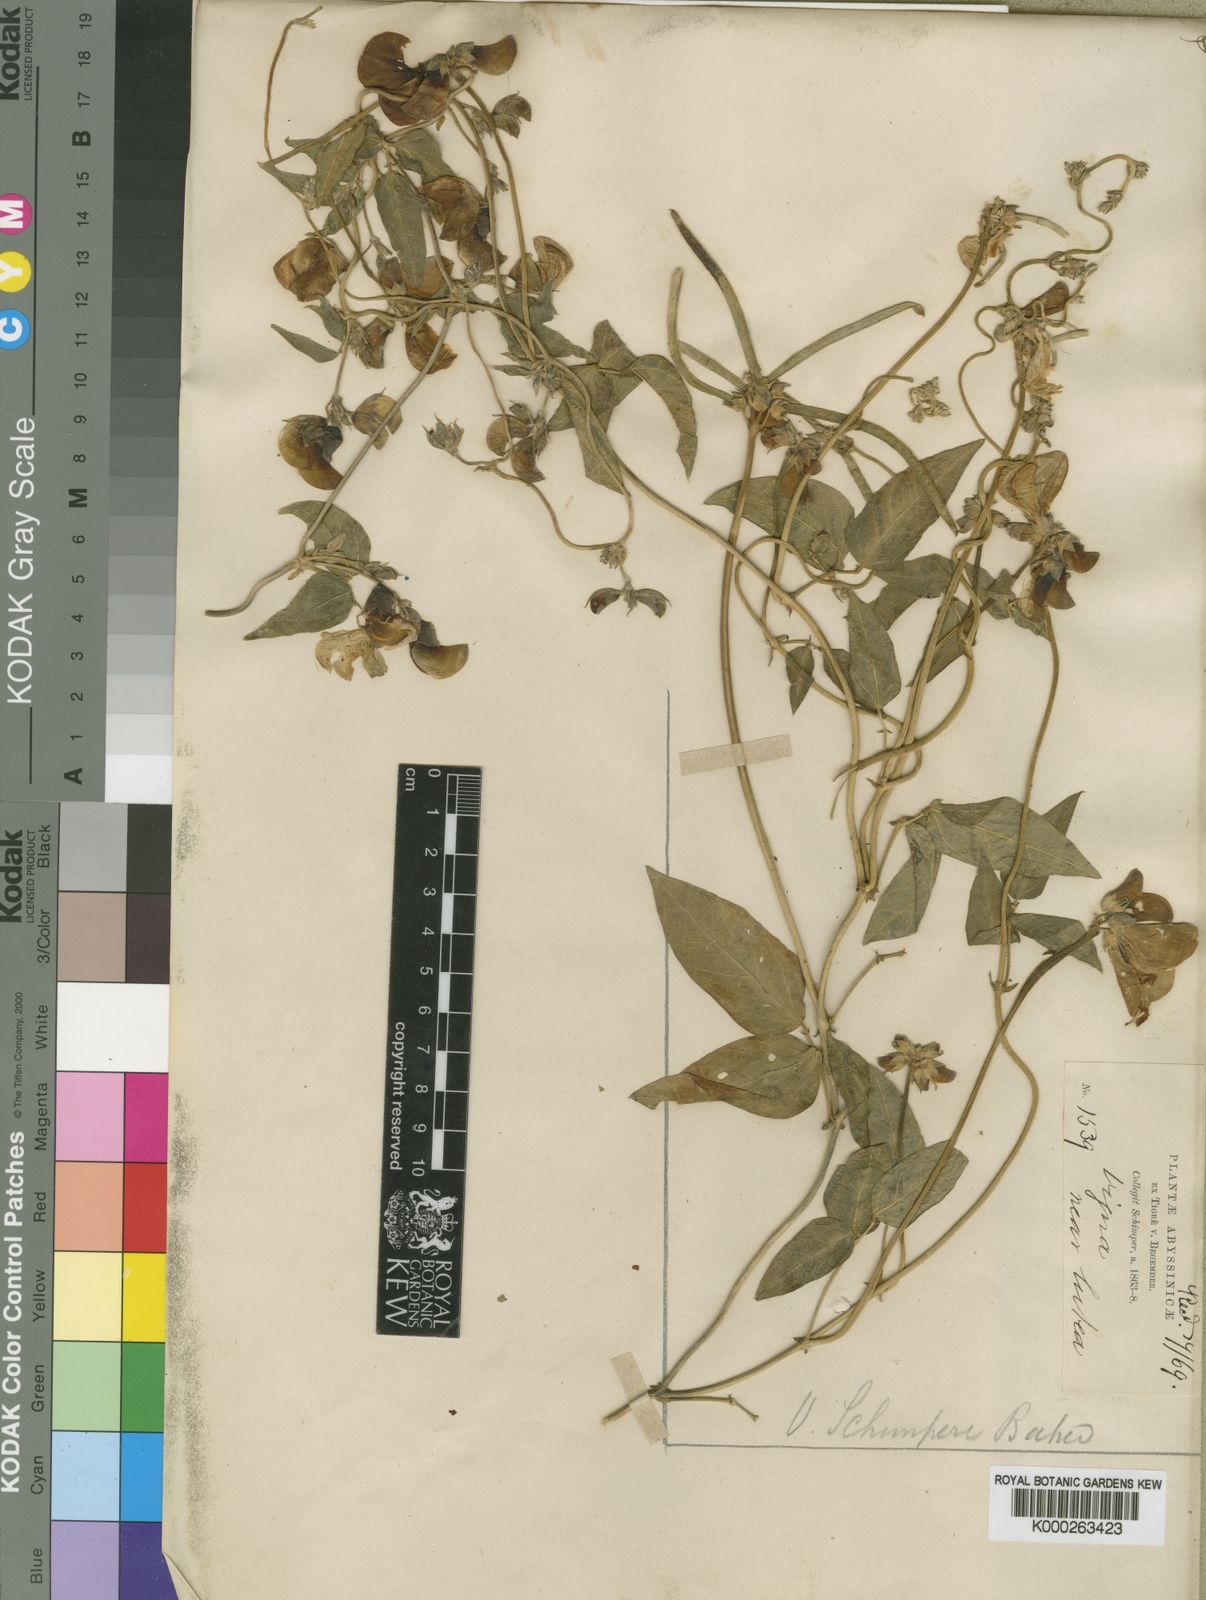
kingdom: Plantae
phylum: Tracheophyta
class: Magnoliopsida
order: Fabales
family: Fabaceae
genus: Vigna
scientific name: Vigna schimperi
